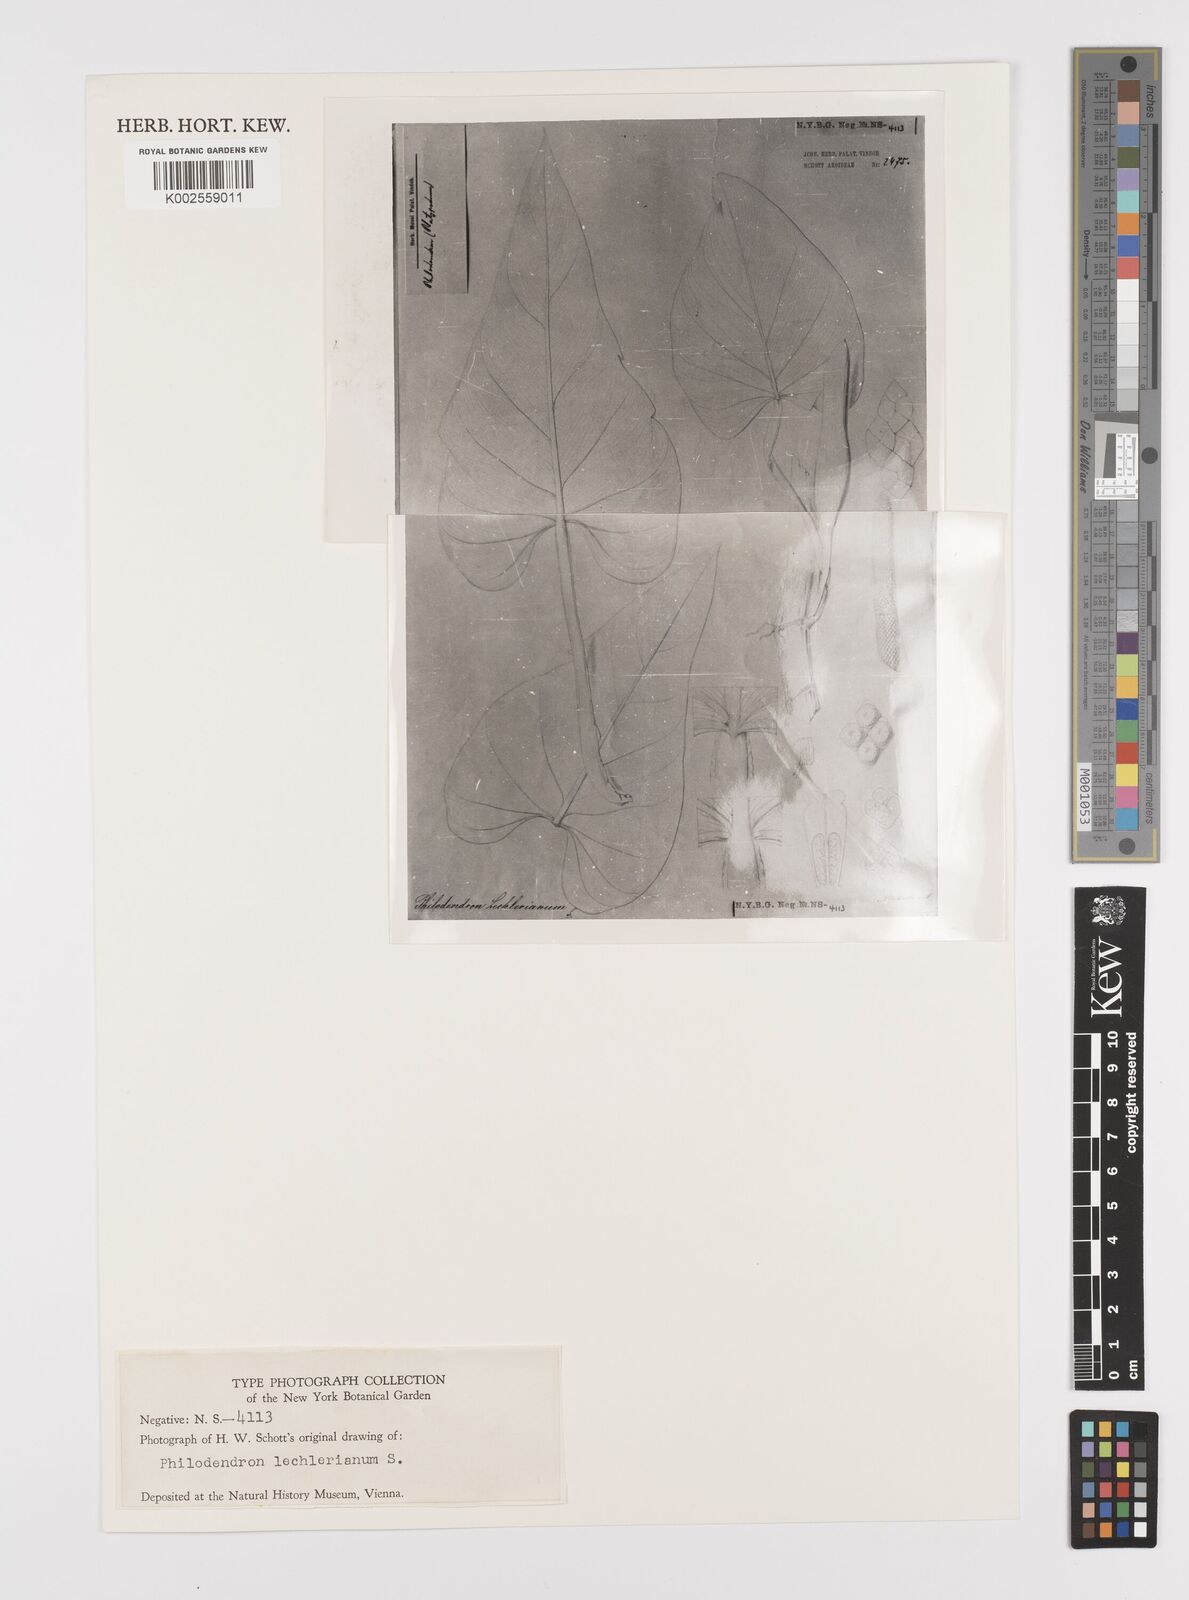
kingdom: Plantae
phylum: Tracheophyta
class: Liliopsida
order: Alismatales
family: Araceae
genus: Philodendron
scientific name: Philodendron lechlerianum
